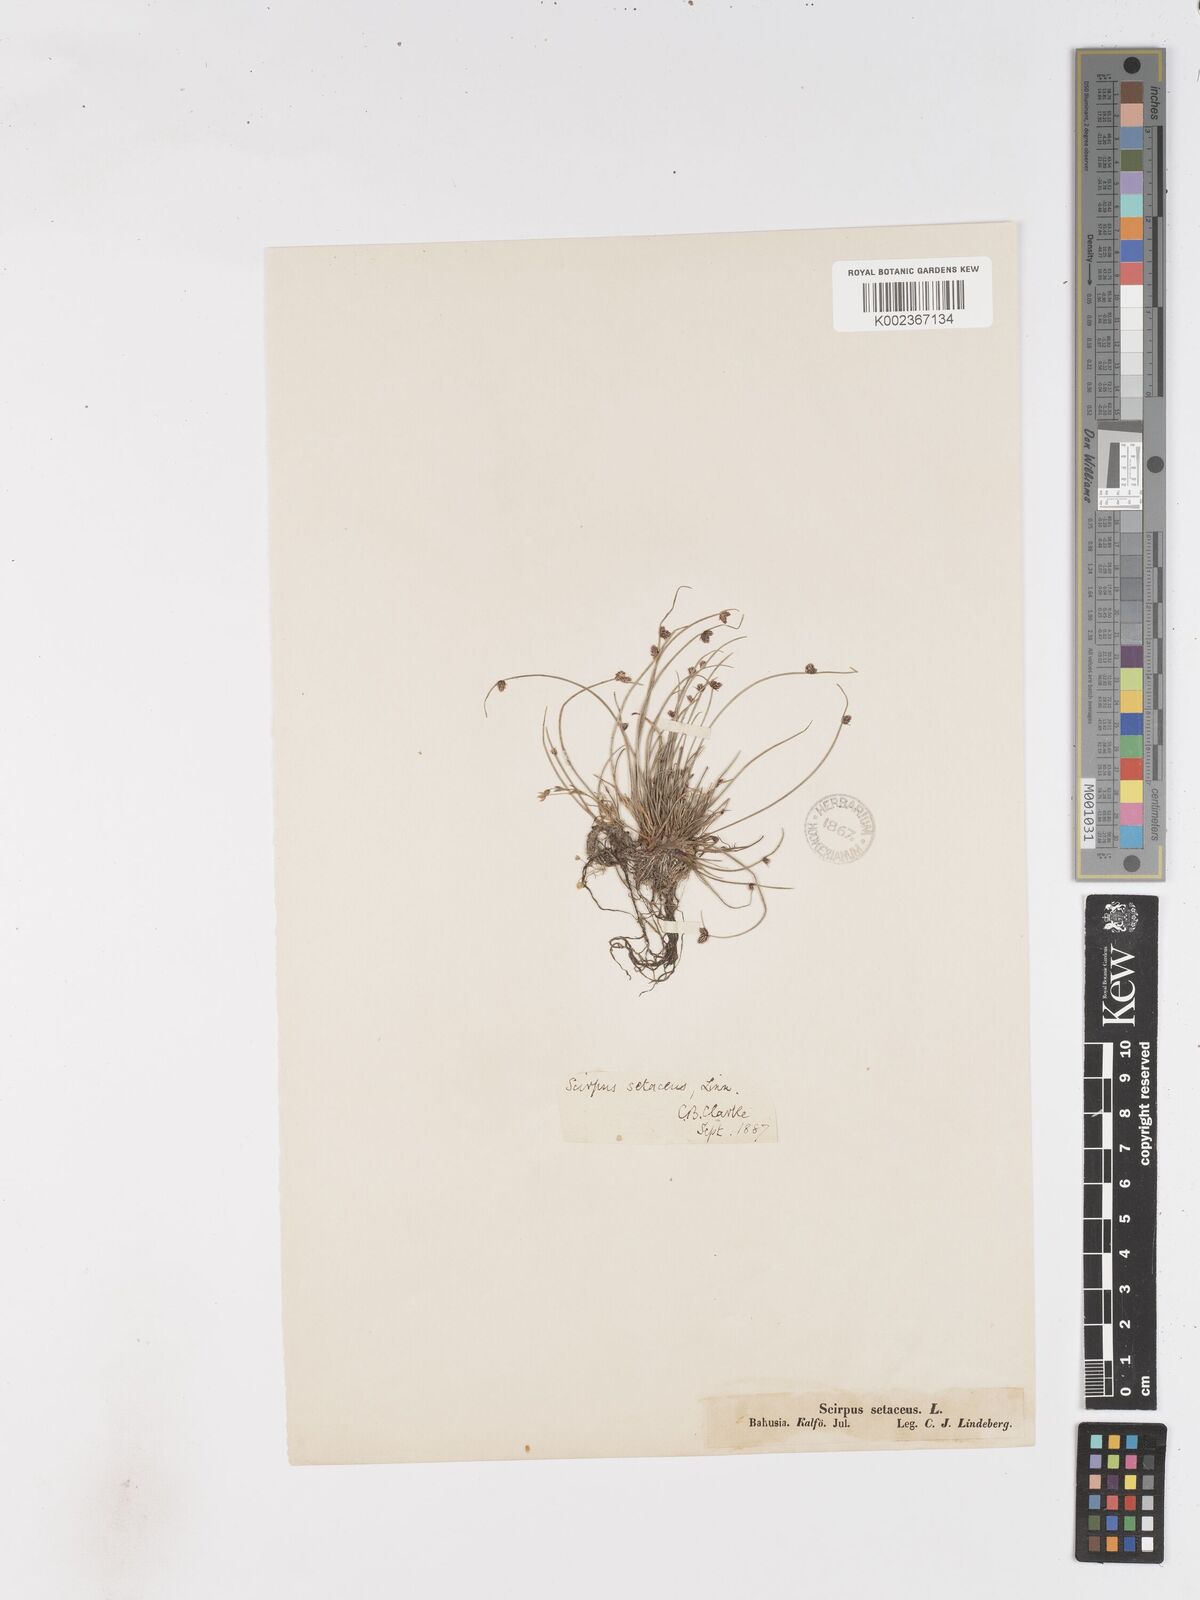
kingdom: Plantae
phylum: Tracheophyta
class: Liliopsida
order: Poales
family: Cyperaceae
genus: Isolepis
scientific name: Isolepis setacea
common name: Bristle club-rush
